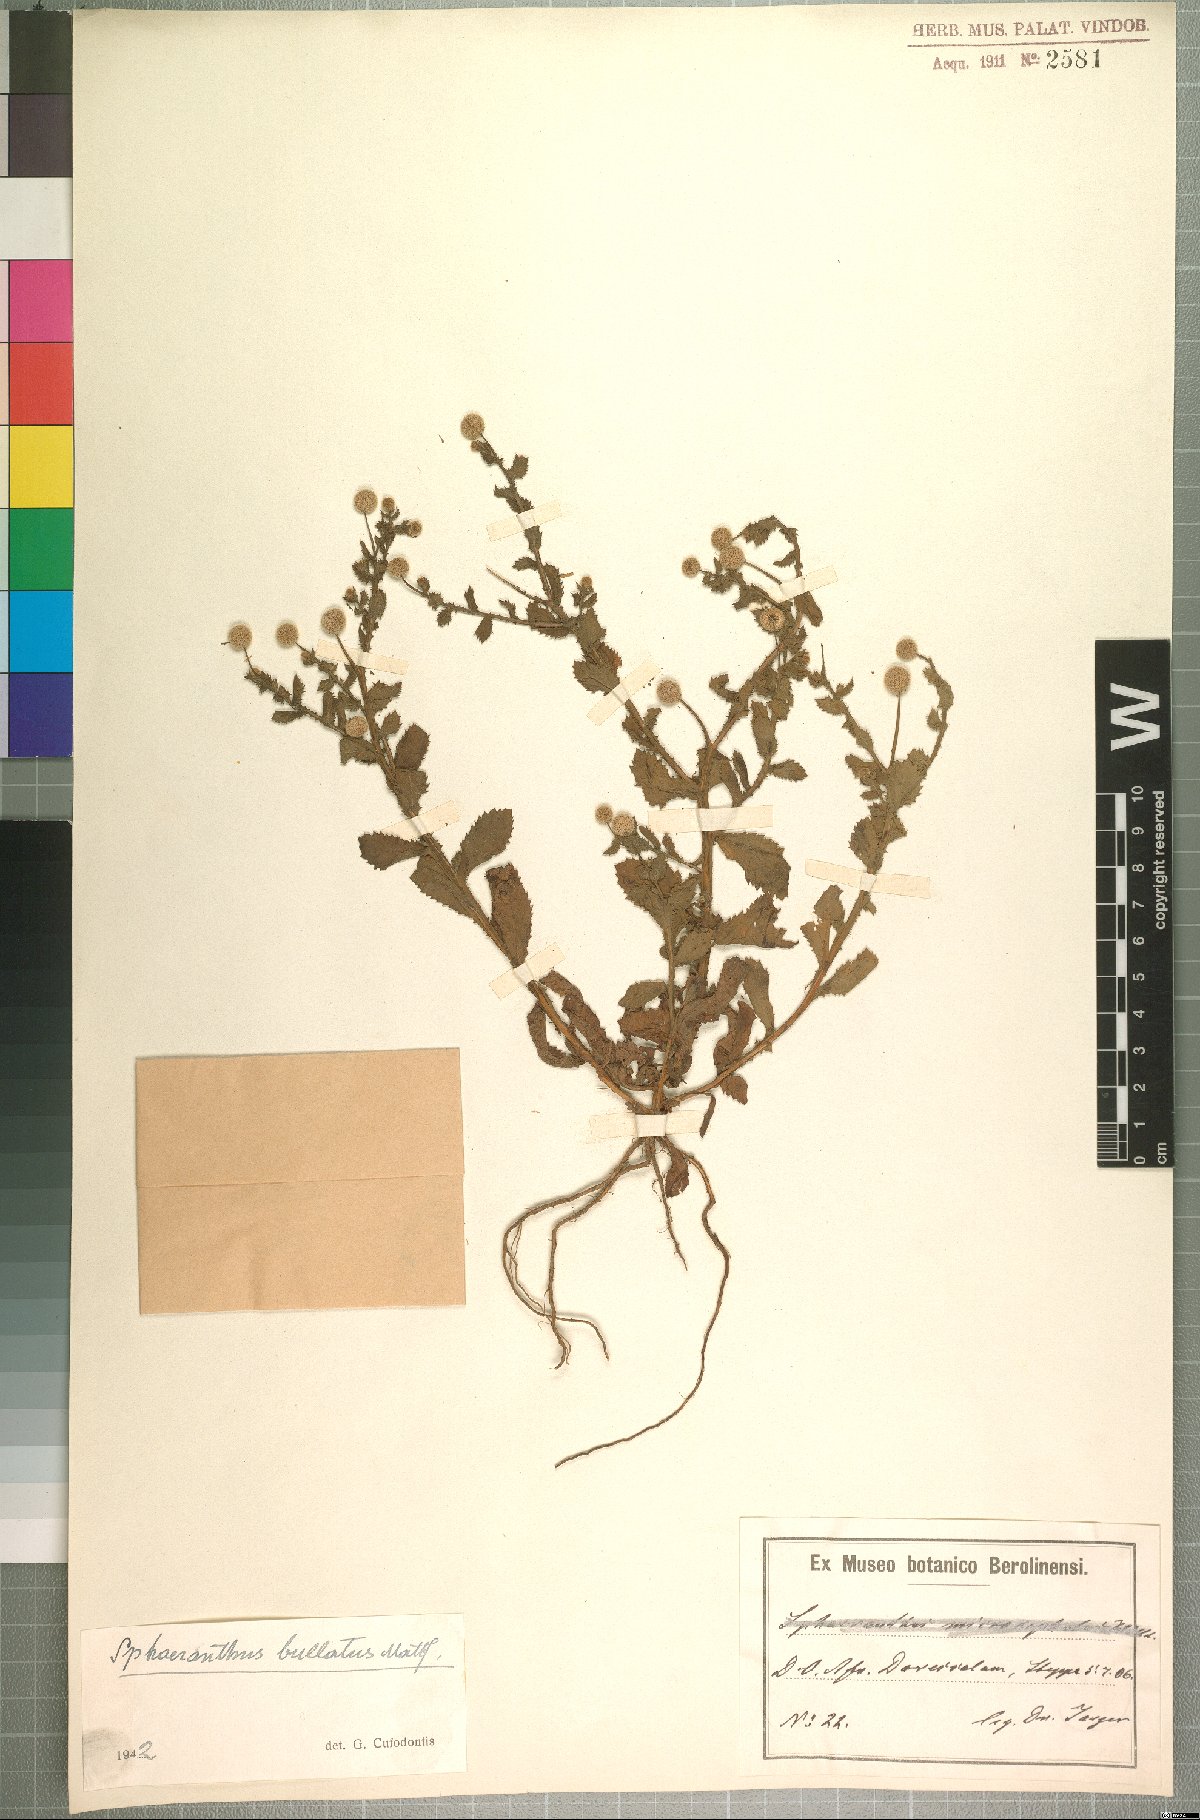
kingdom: Plantae
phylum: Tracheophyta
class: Magnoliopsida
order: Asterales
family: Asteraceae
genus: Sphaeranthus
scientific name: Sphaeranthus bullatus
